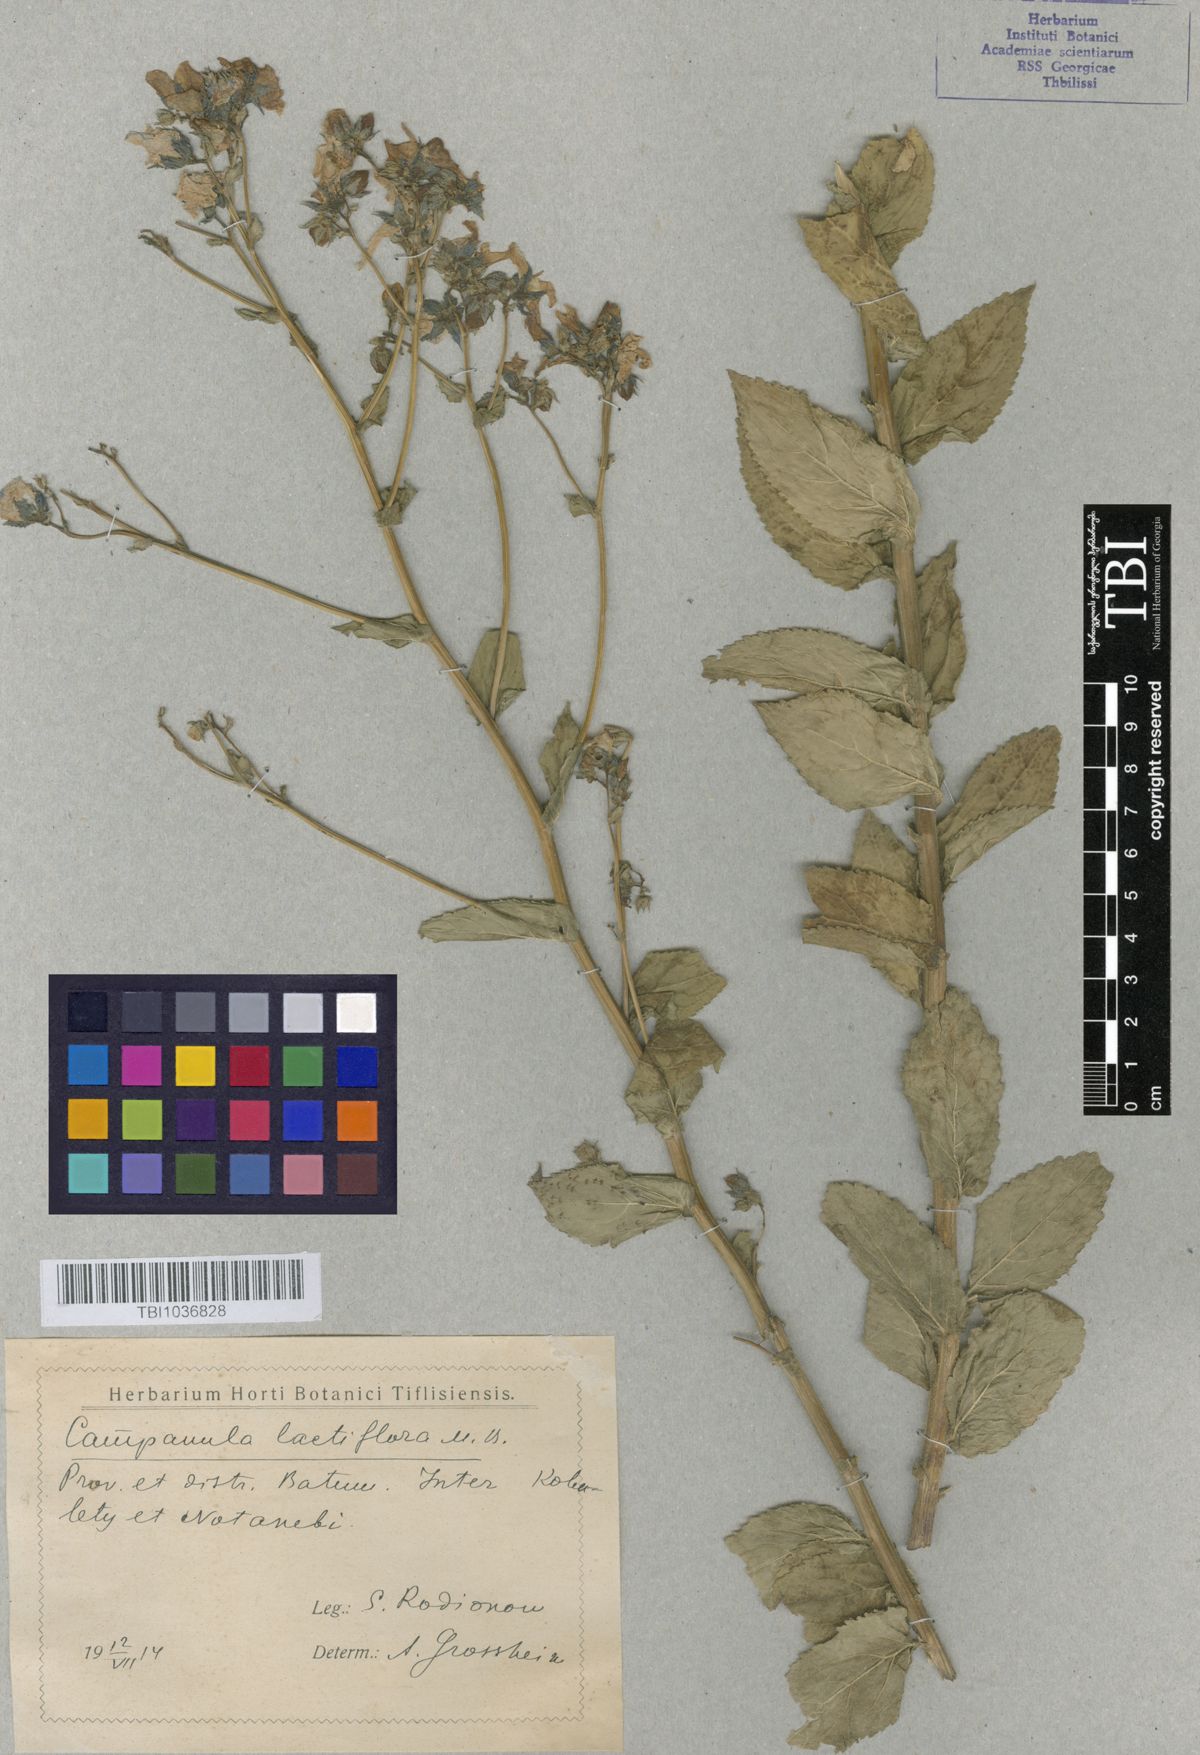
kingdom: Plantae
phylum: Tracheophyta
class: Magnoliopsida
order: Asterales
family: Campanulaceae
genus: Campanula
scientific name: Campanula lactiflora
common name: Milky bellflower
